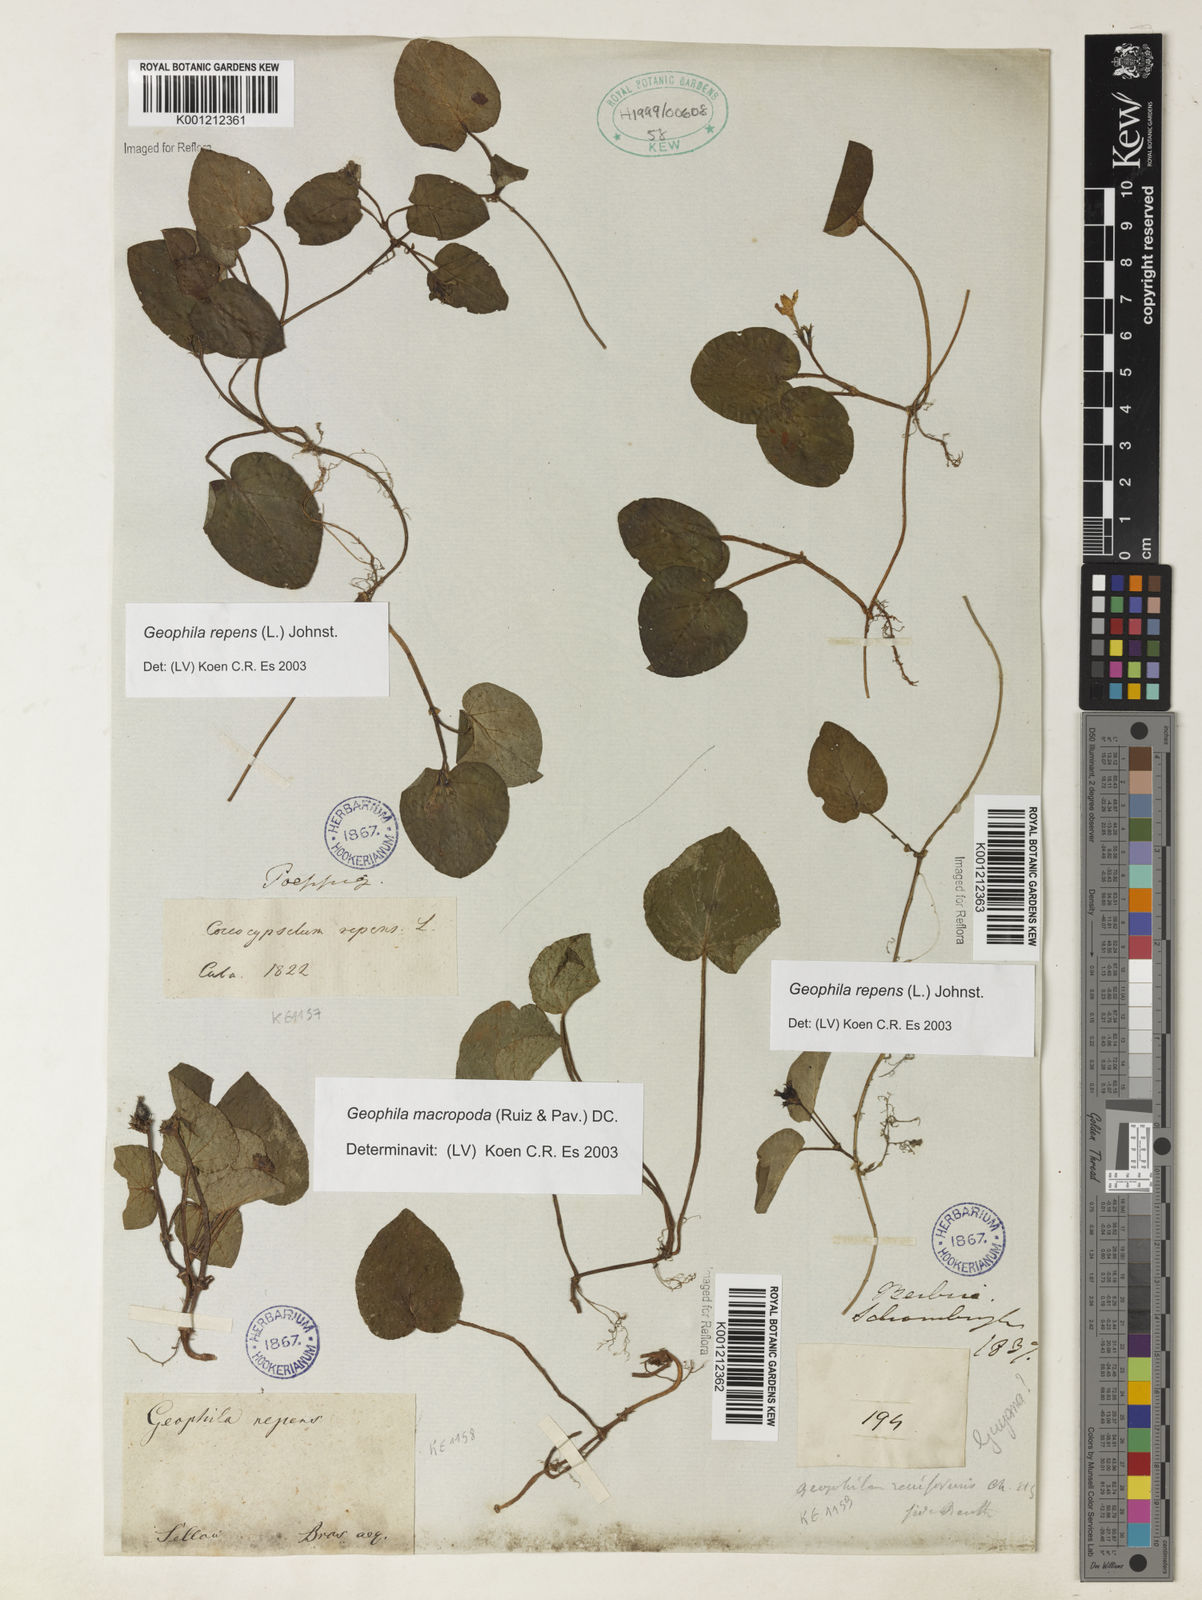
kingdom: Plantae
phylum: Tracheophyta
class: Magnoliopsida
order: Gentianales
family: Rubiaceae
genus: Geophila
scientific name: Geophila repens
